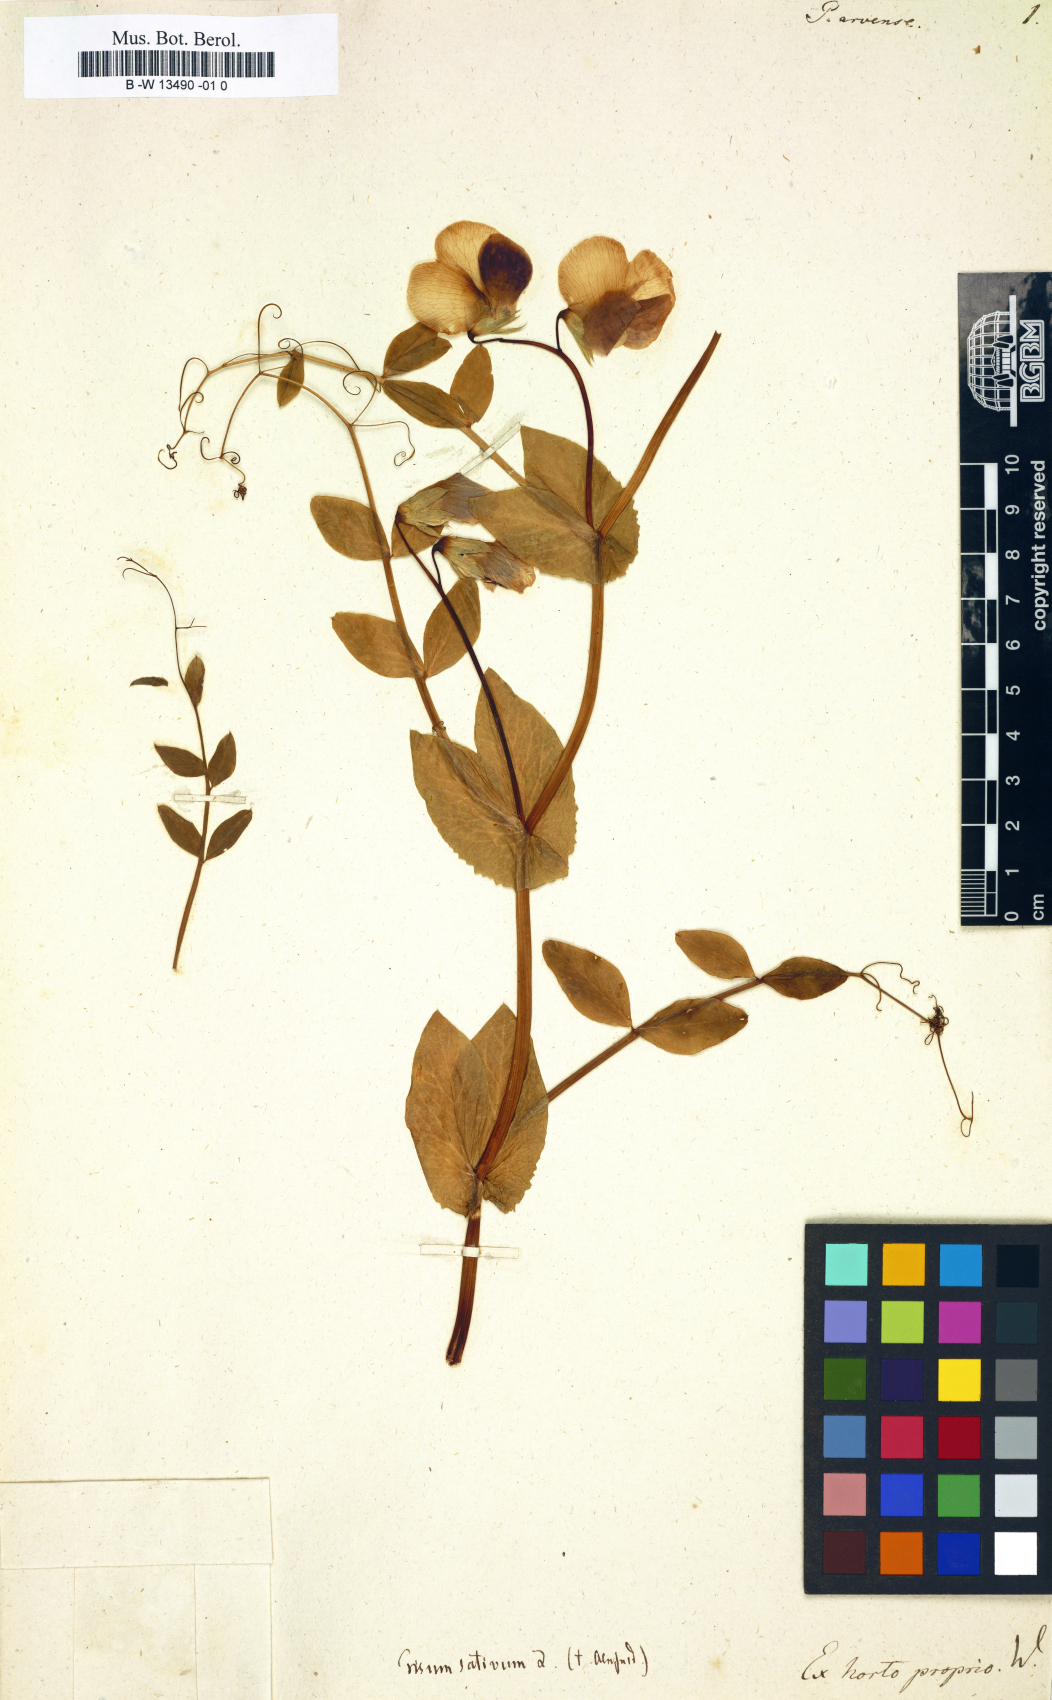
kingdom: Plantae
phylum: Tracheophyta
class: Magnoliopsida
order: Fabales
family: Fabaceae
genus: Lathyrus
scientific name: Lathyrus oleraceus
